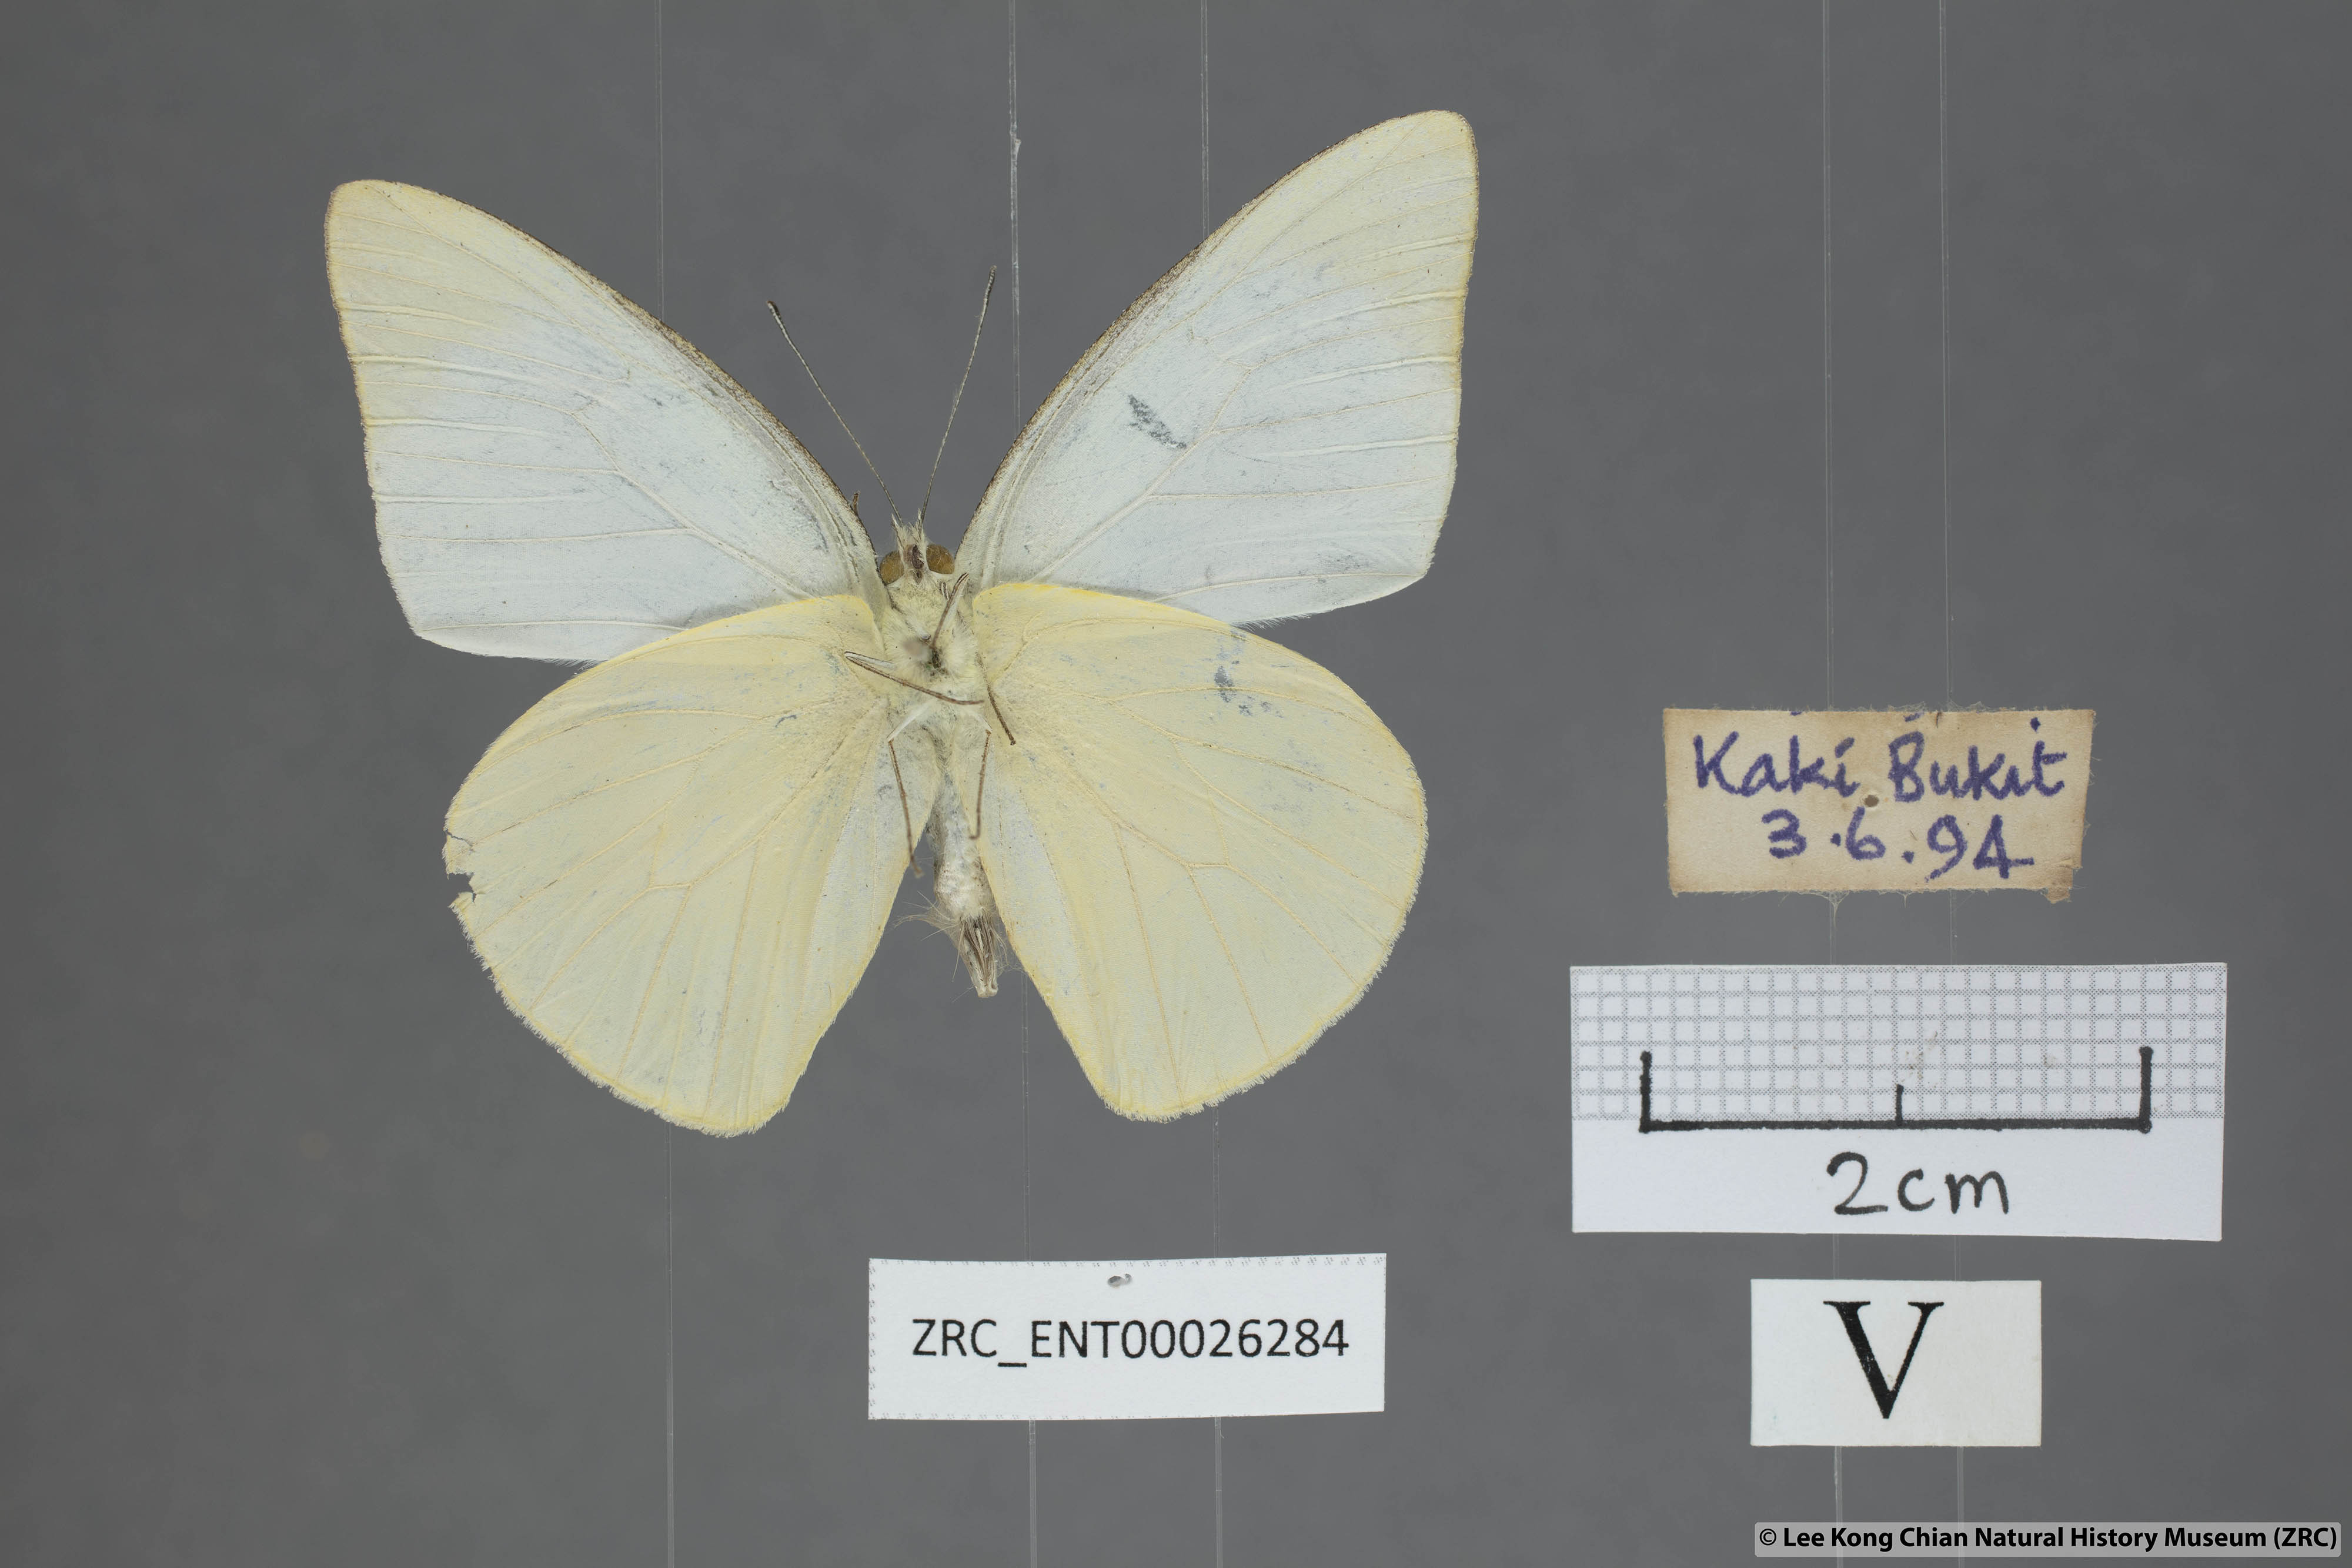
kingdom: Animalia
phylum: Arthropoda
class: Insecta
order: Lepidoptera
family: Pieridae
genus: Saletara
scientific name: Saletara liberia
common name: Pointed albatross
